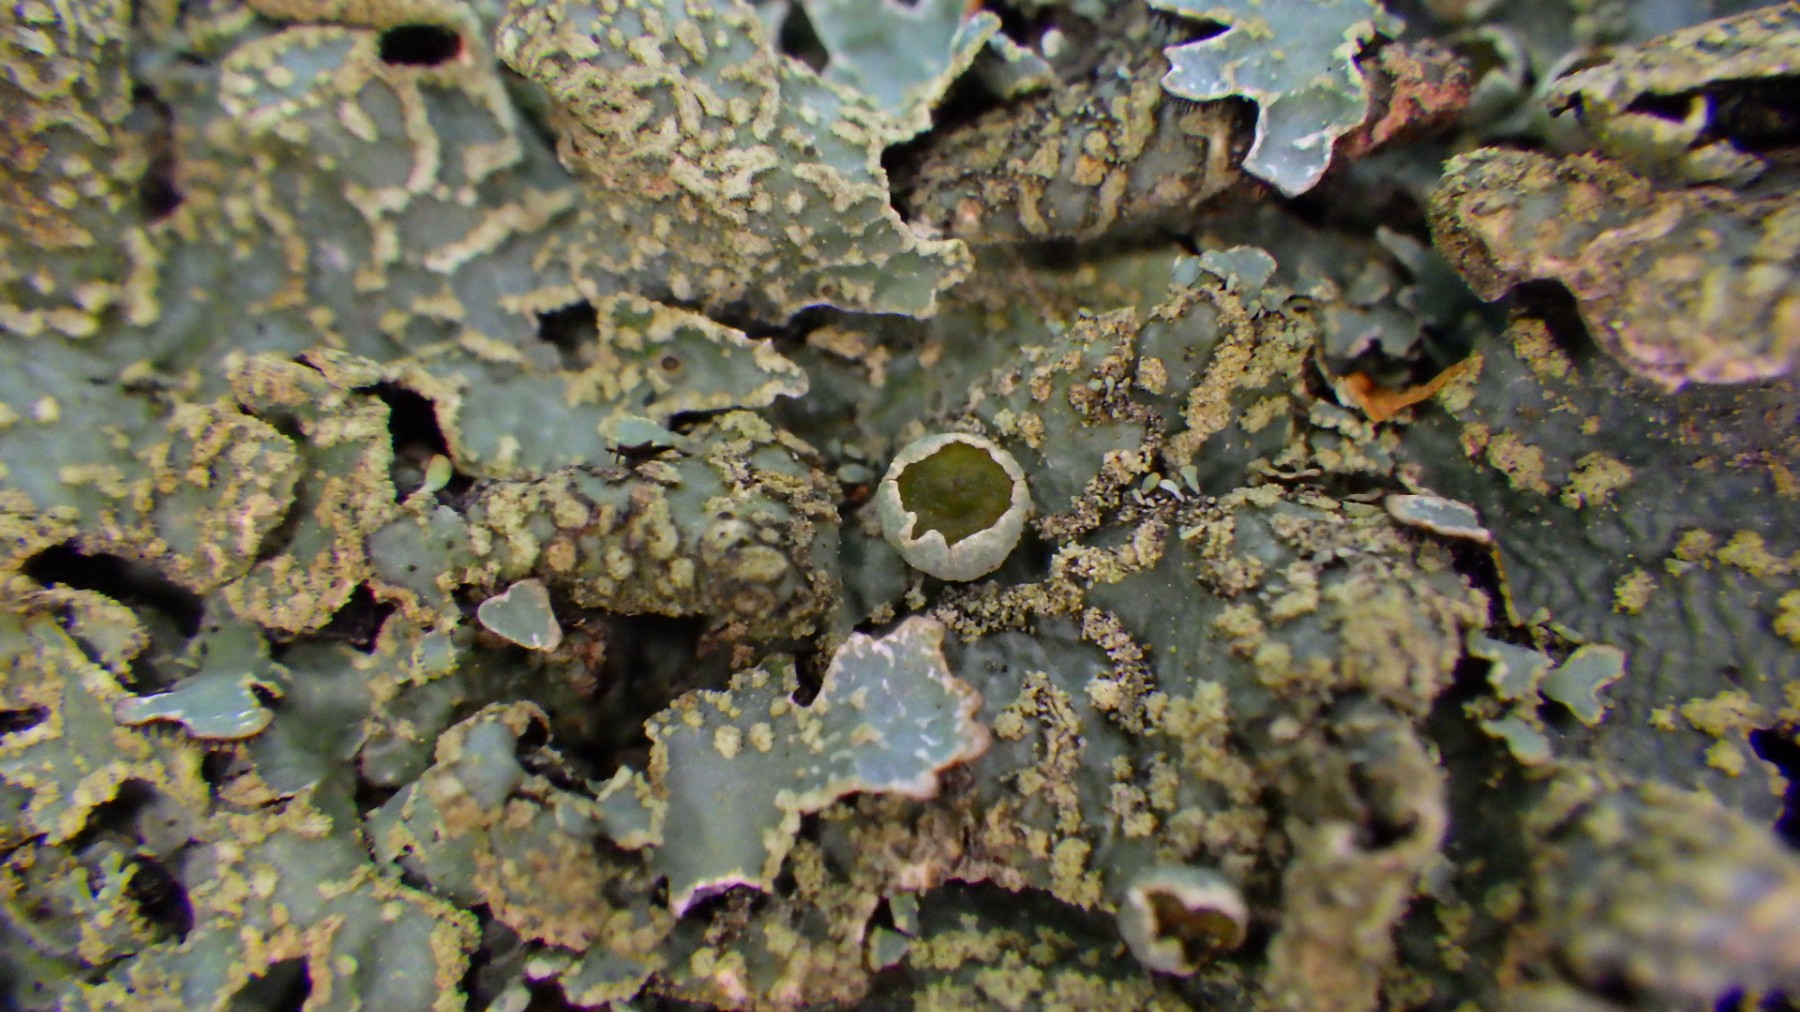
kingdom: Fungi
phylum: Ascomycota
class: Lecanoromycetes
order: Lecanorales
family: Parmeliaceae
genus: Parmelia
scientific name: Parmelia sulcata
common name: rynket skållav
